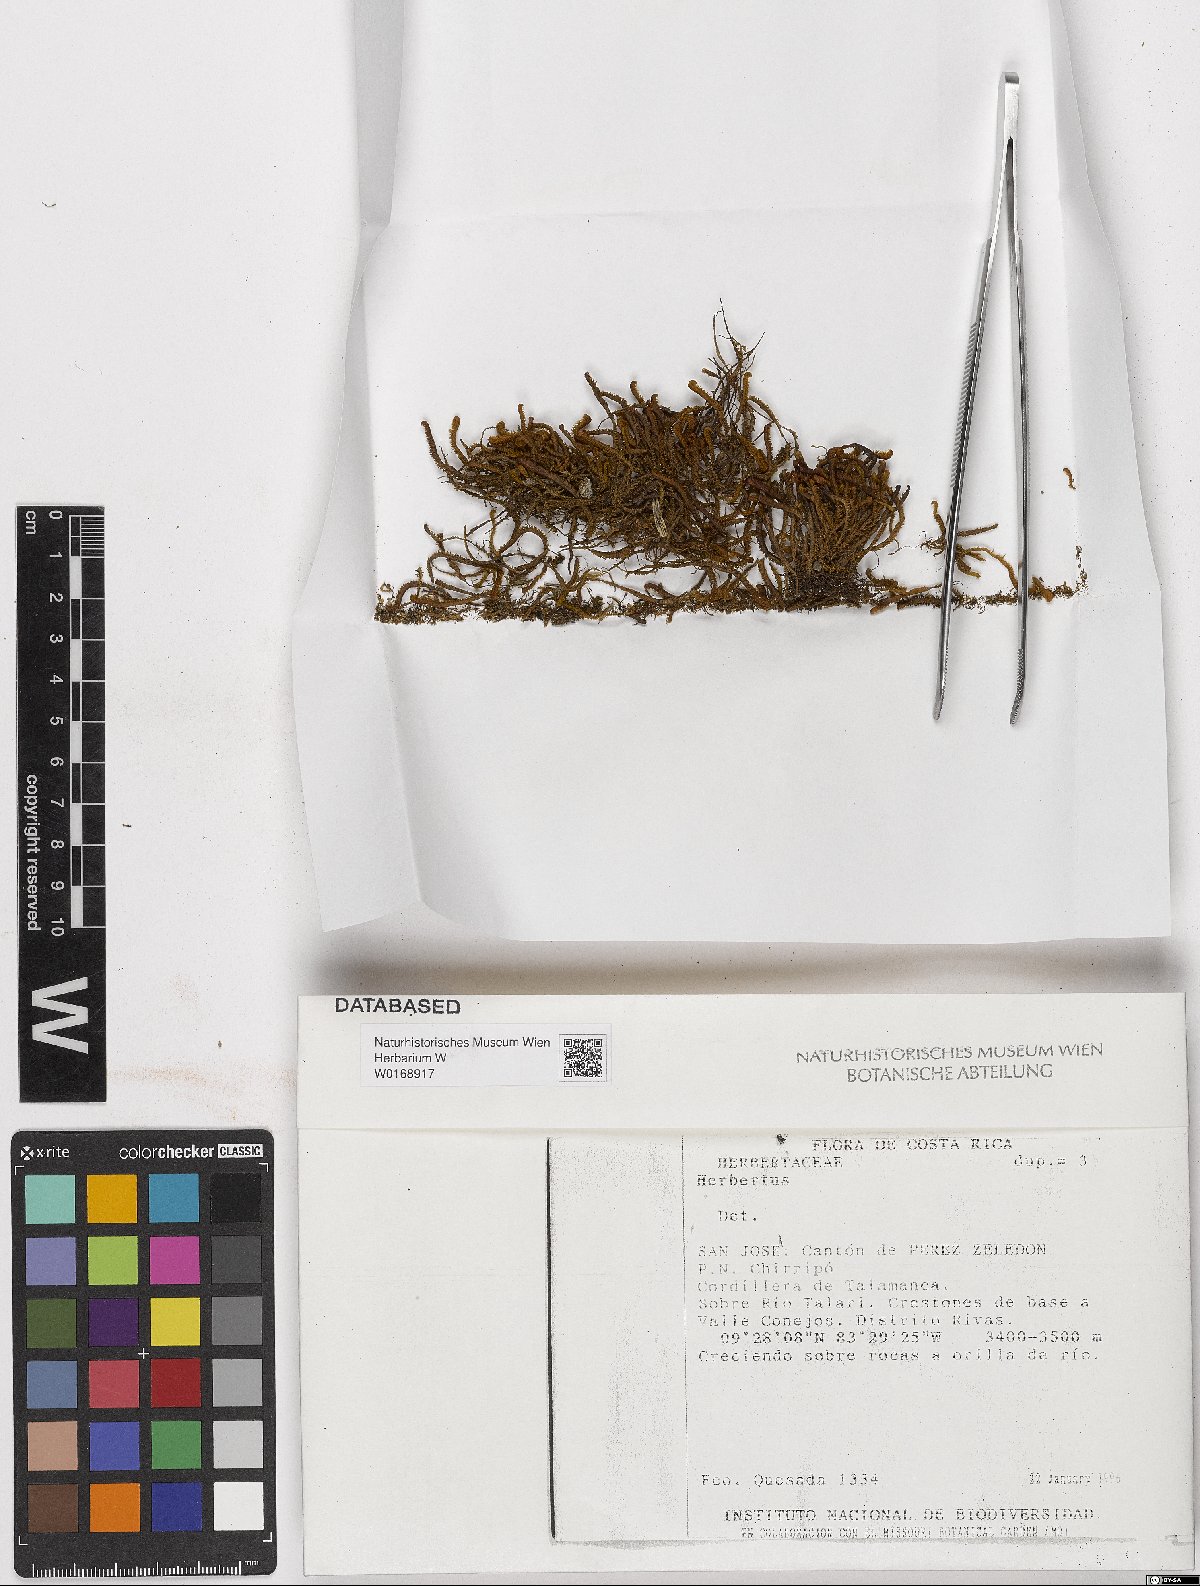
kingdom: Plantae
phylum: Marchantiophyta
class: Jungermanniopsida
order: Jungermanniales
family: Herbertaceae
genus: Herbertus
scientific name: Herbertus
